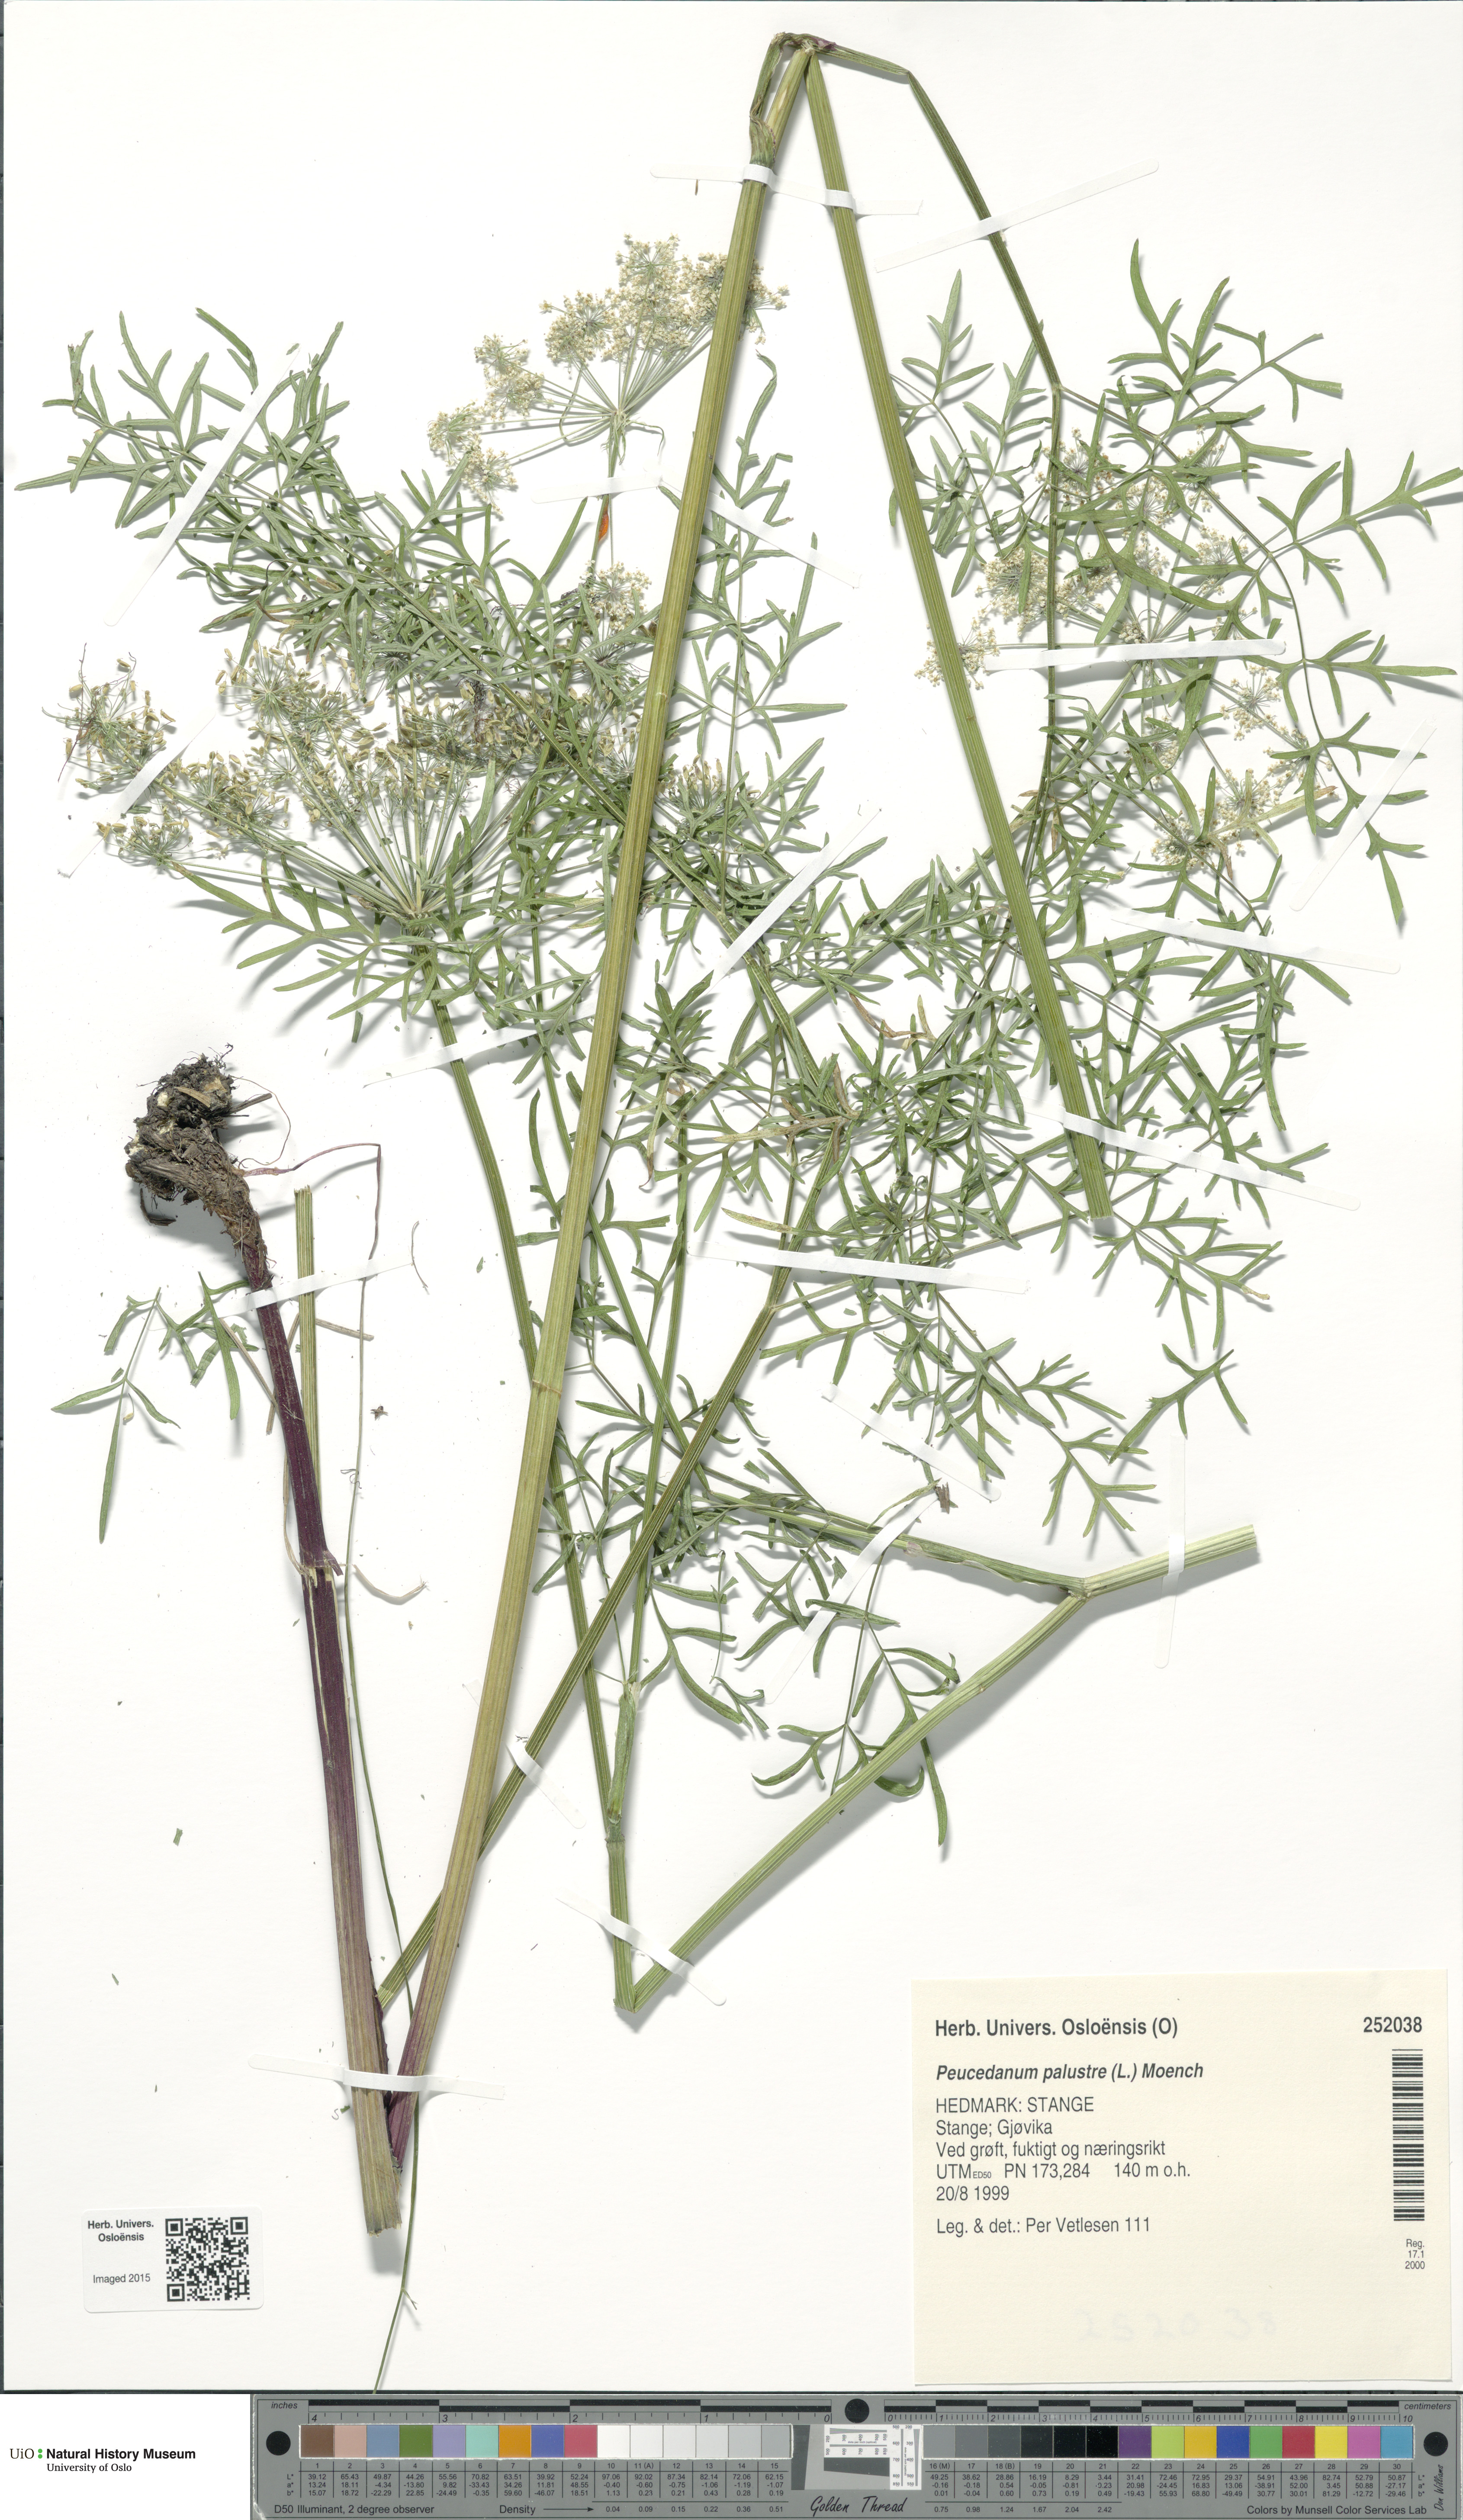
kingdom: Plantae
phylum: Tracheophyta
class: Magnoliopsida
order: Apiales
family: Apiaceae
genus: Thysselinum
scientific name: Thysselinum palustre
